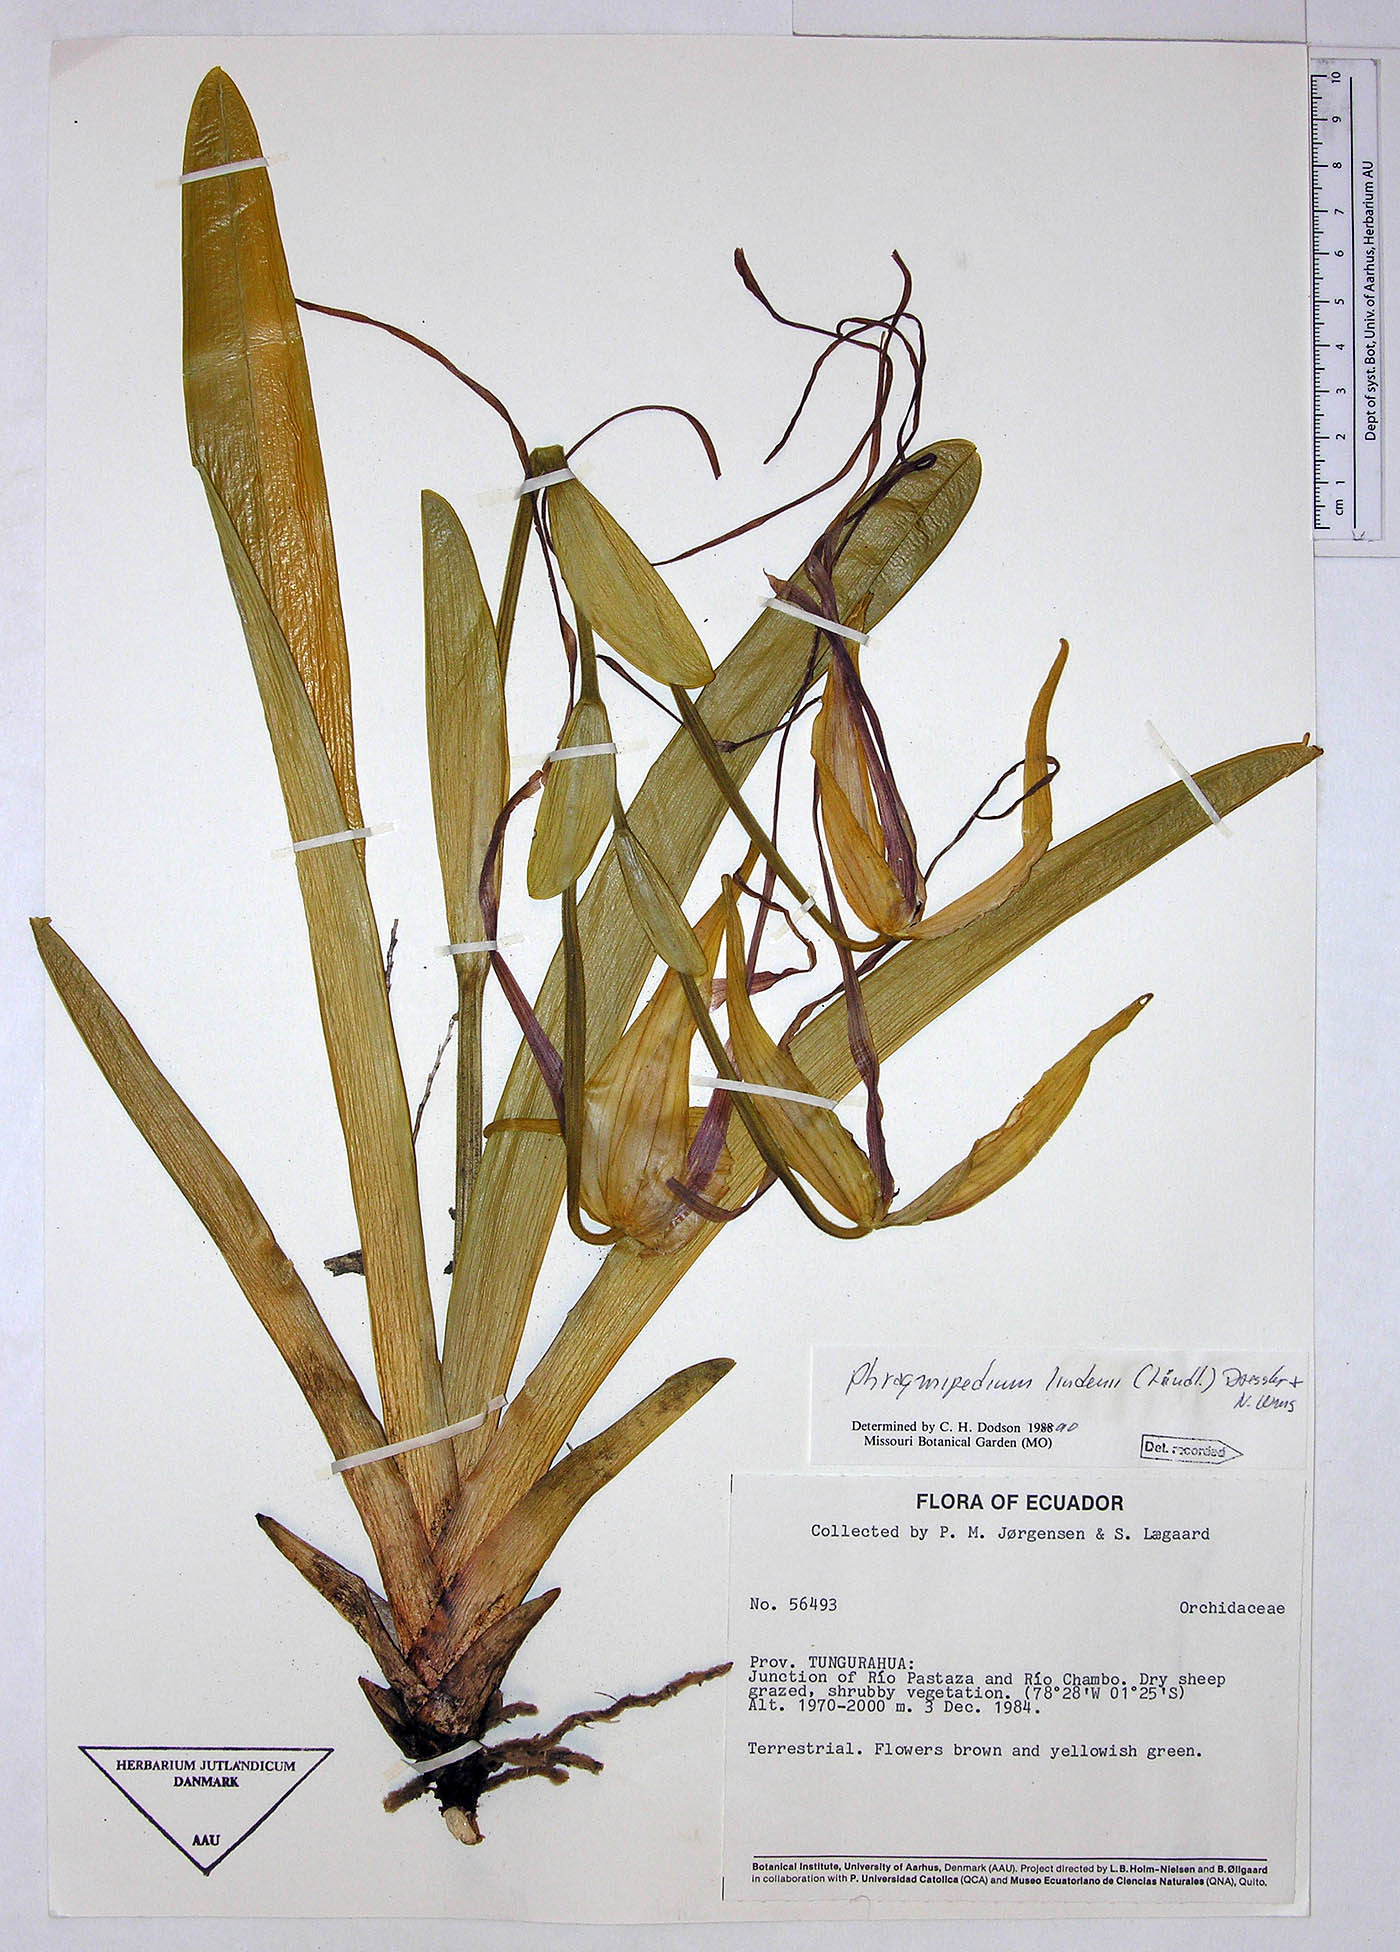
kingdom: Plantae
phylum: Tracheophyta
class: Liliopsida
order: Asparagales
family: Orchidaceae
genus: Phragmipedium
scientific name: Phragmipedium lindenii
